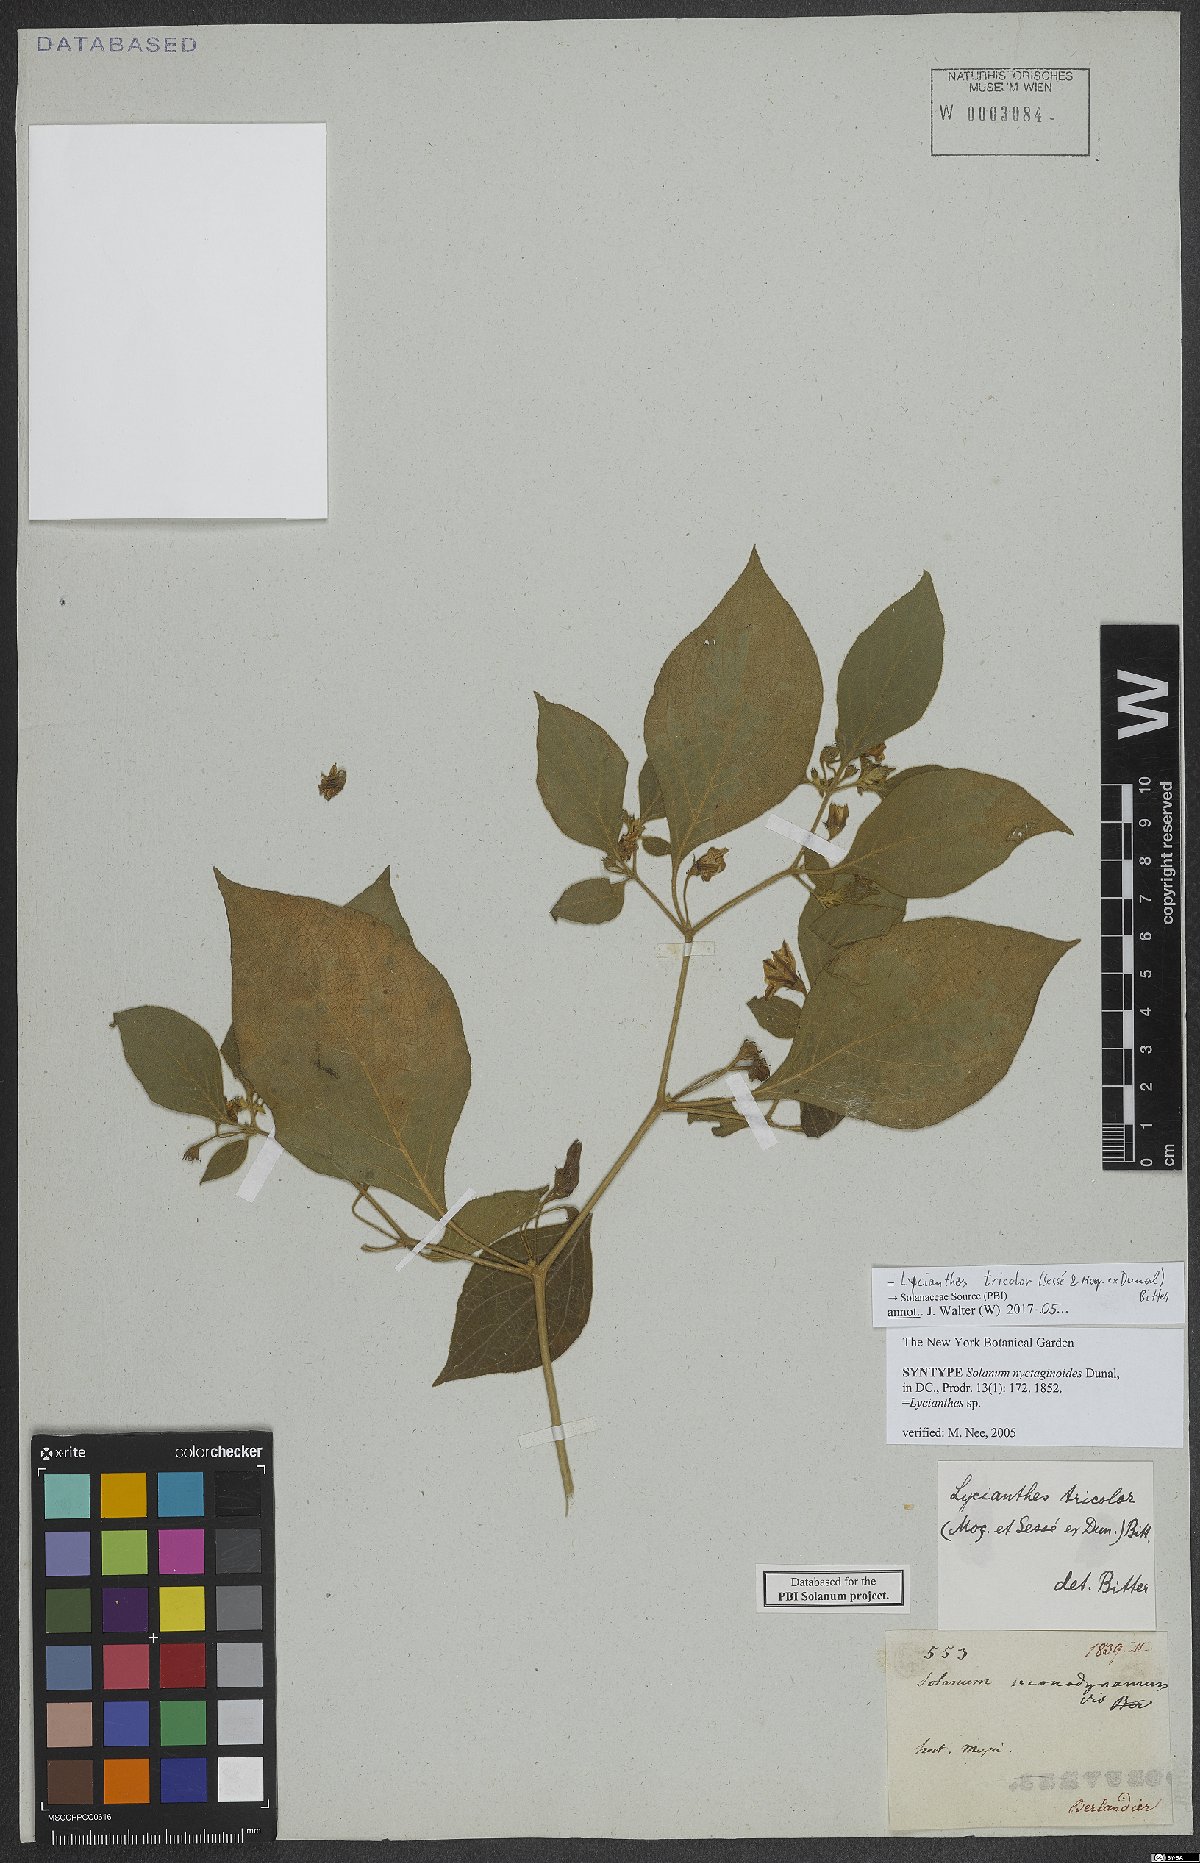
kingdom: Plantae
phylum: Tracheophyta
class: Magnoliopsida
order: Solanales
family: Solanaceae
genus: Lycianthes
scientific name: Lycianthes tricolor
